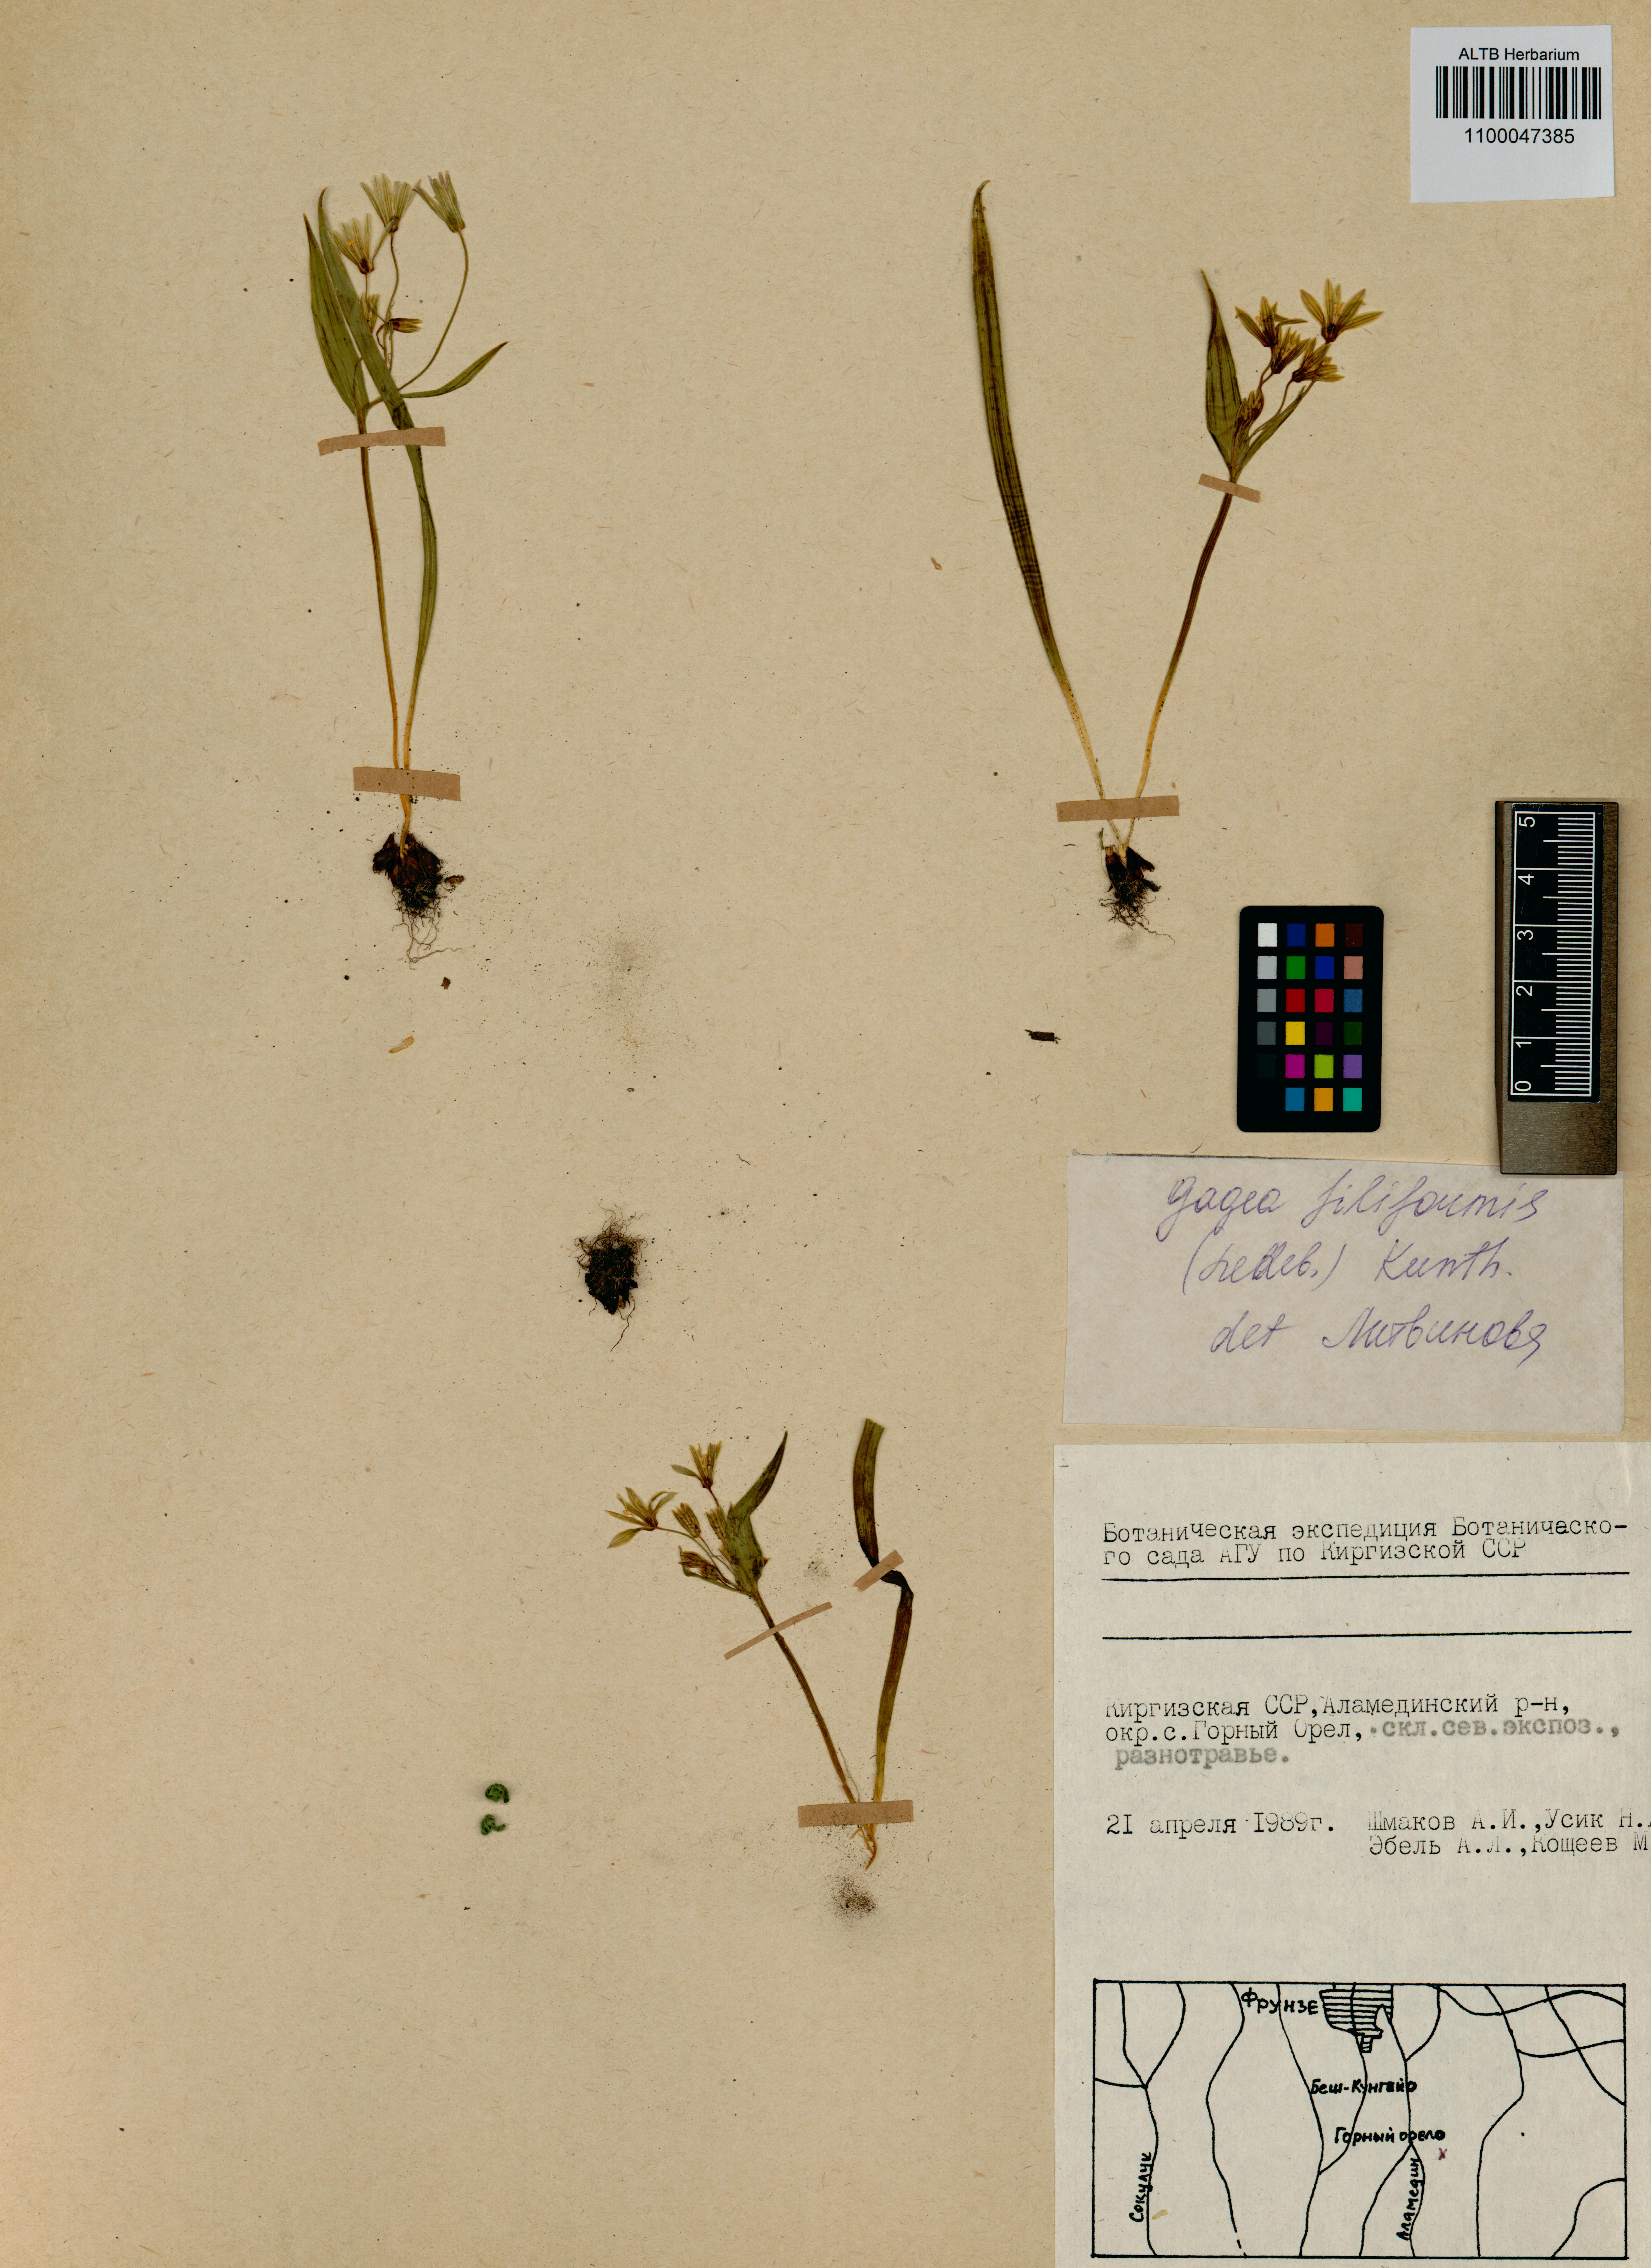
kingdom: Plantae
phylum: Tracheophyta
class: Liliopsida
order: Liliales
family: Liliaceae
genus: Gagea
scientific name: Gagea filiformis
